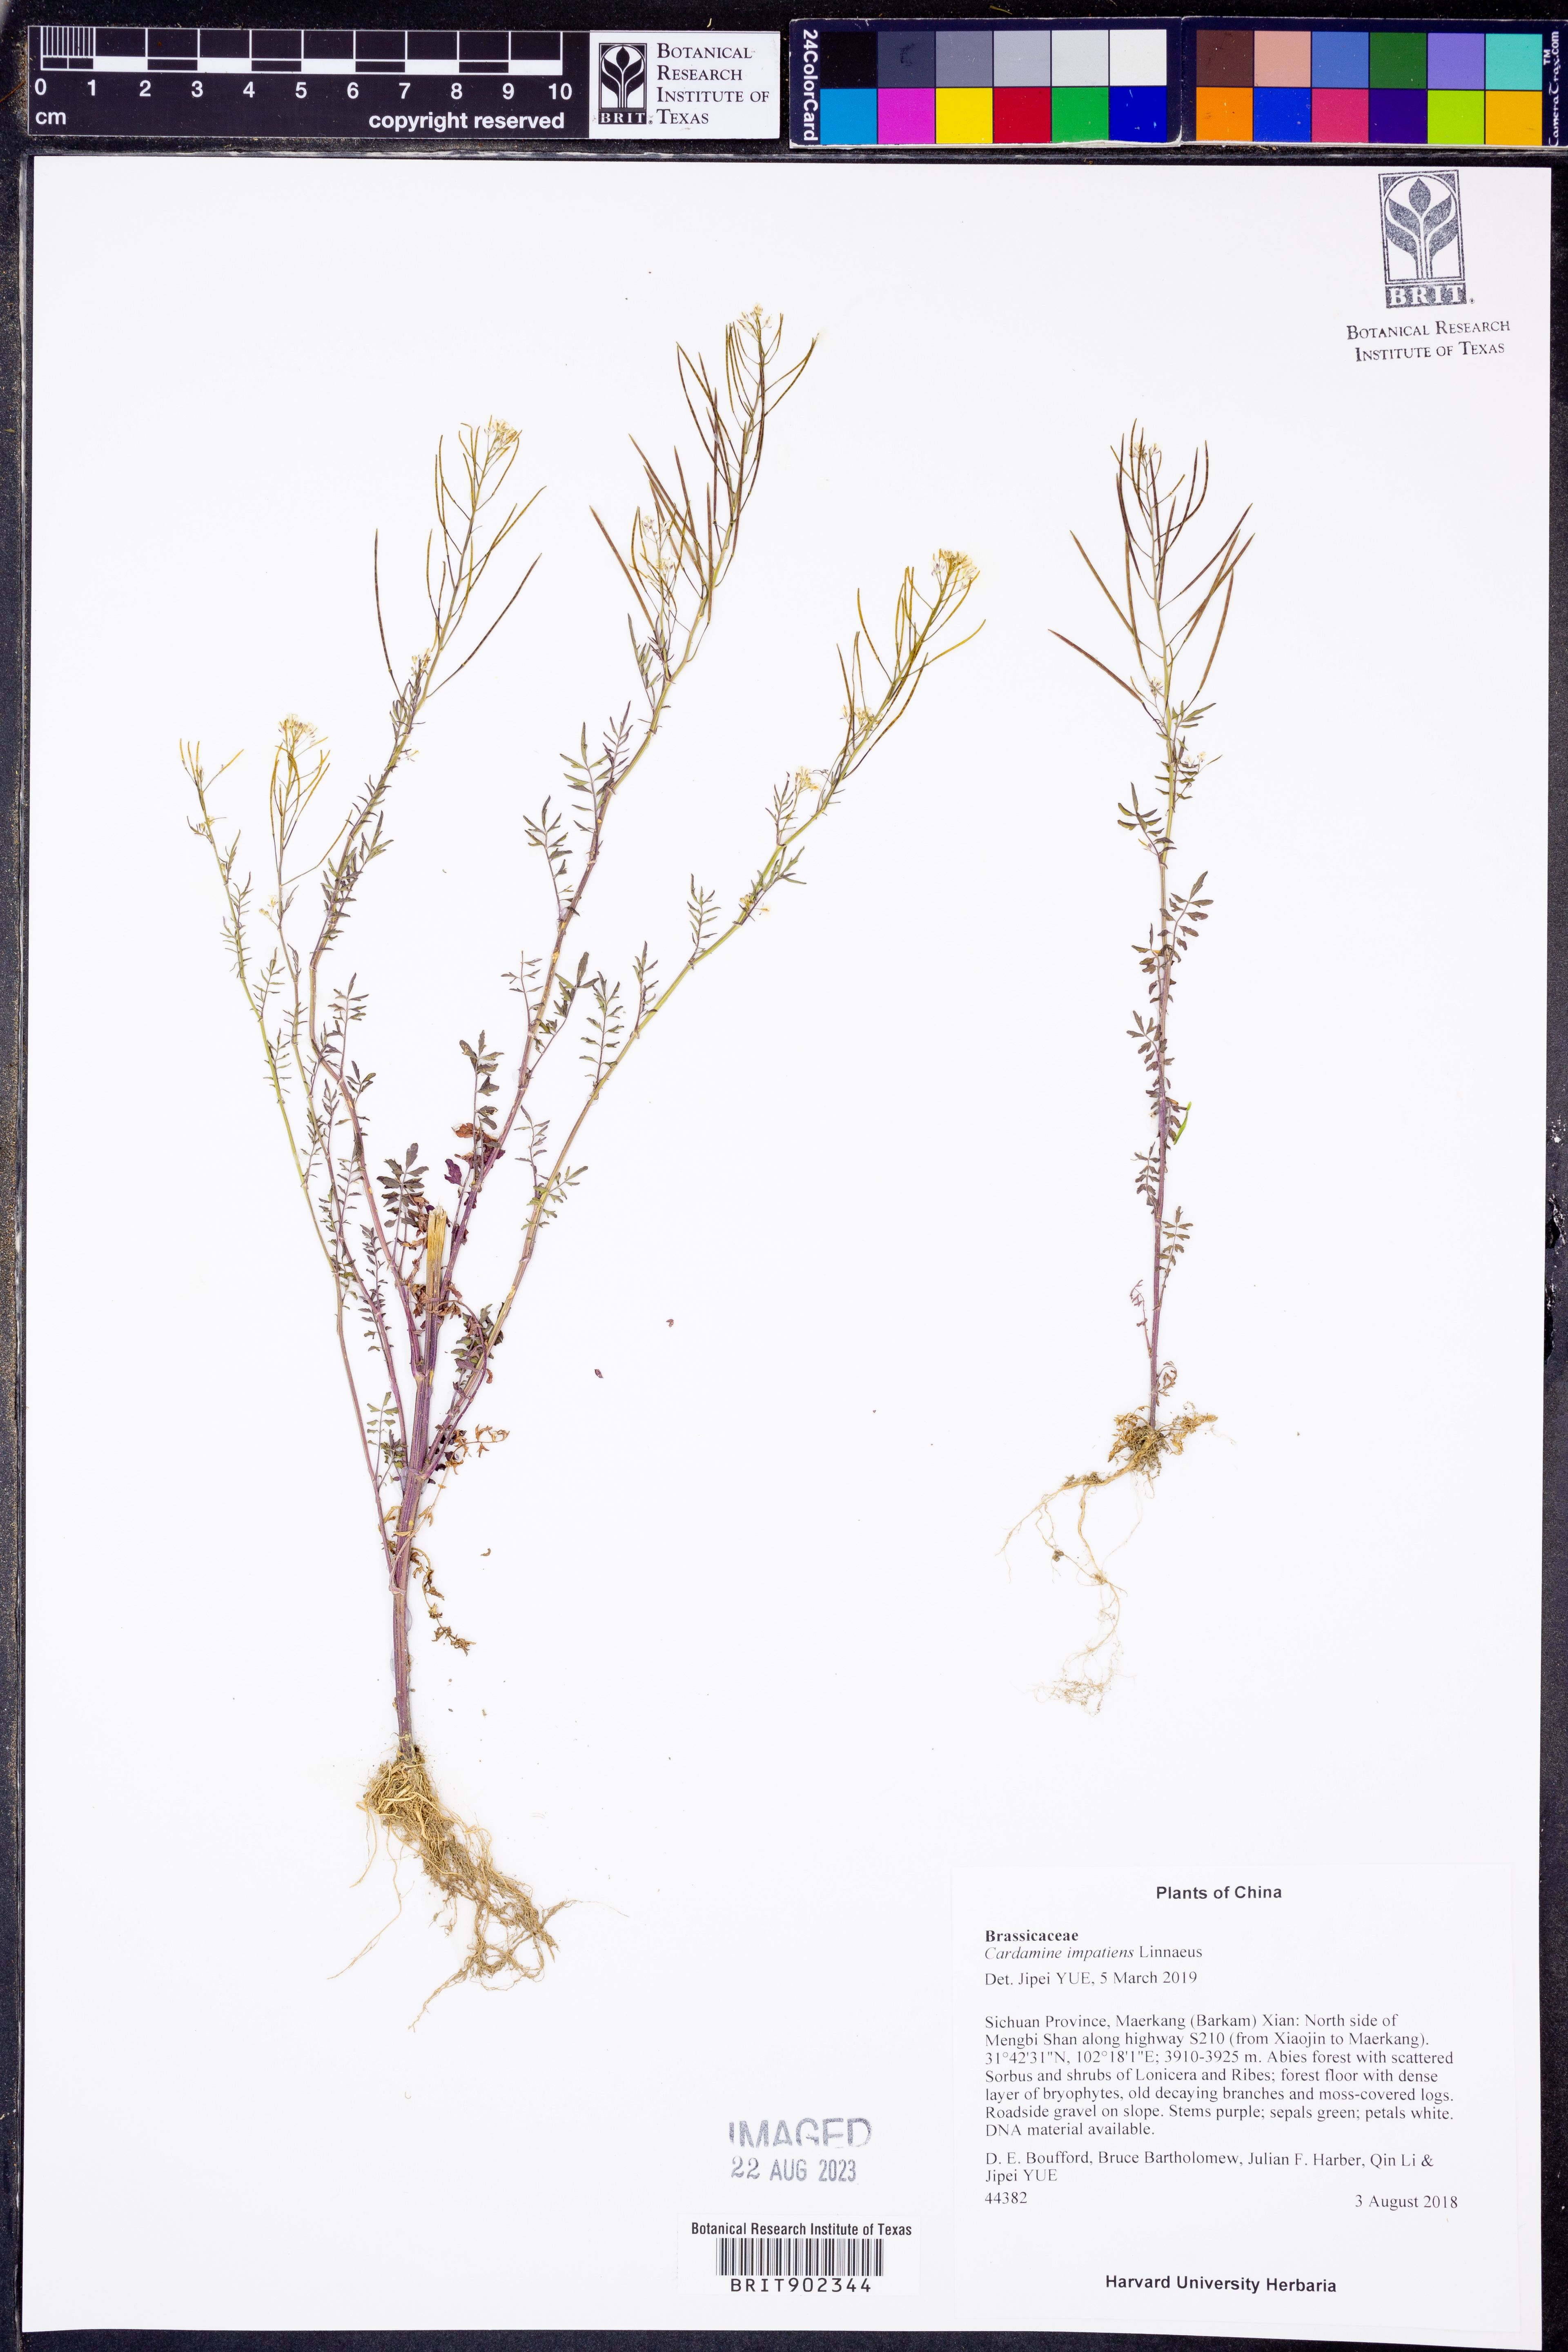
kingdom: Plantae
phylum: Tracheophyta
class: Magnoliopsida
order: Brassicales
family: Brassicaceae
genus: Cardamine
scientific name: Cardamine impatiens
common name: Narrow-leaved bitter-cress
